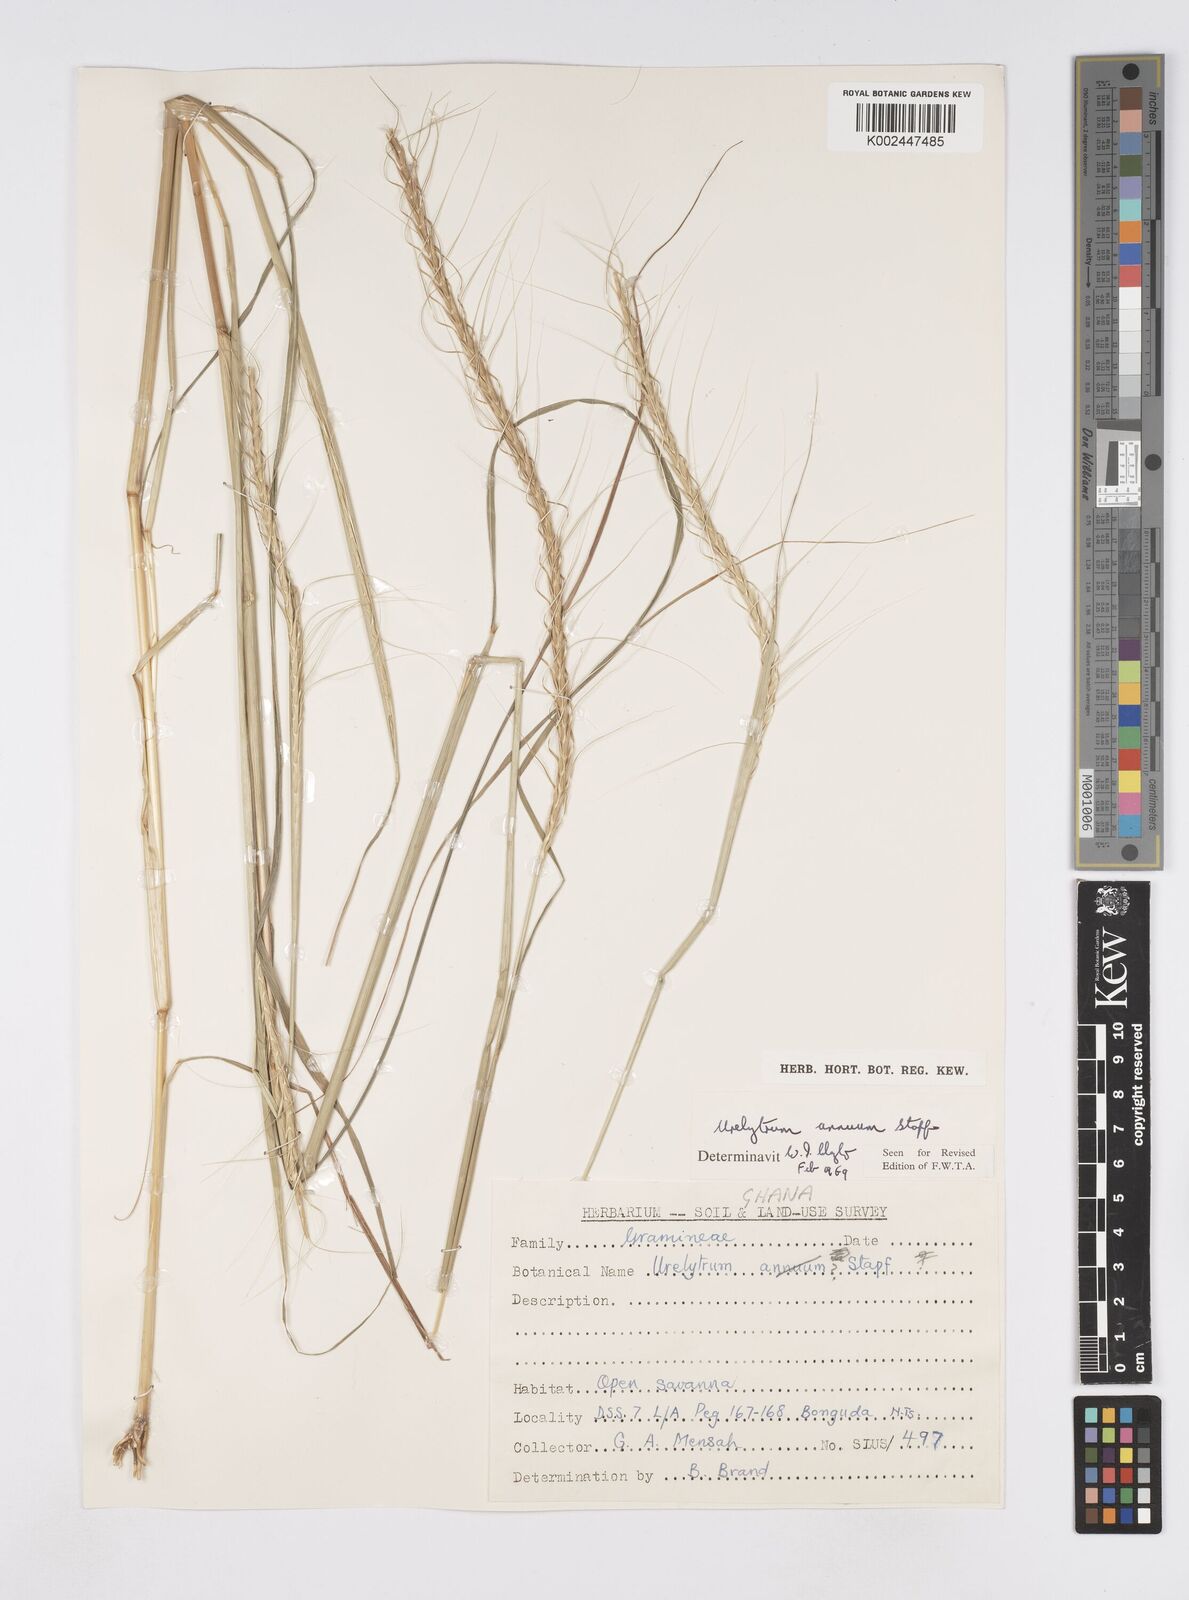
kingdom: Plantae
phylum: Tracheophyta
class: Liliopsida
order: Poales
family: Poaceae
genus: Urelytrum
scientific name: Urelytrum annuum
